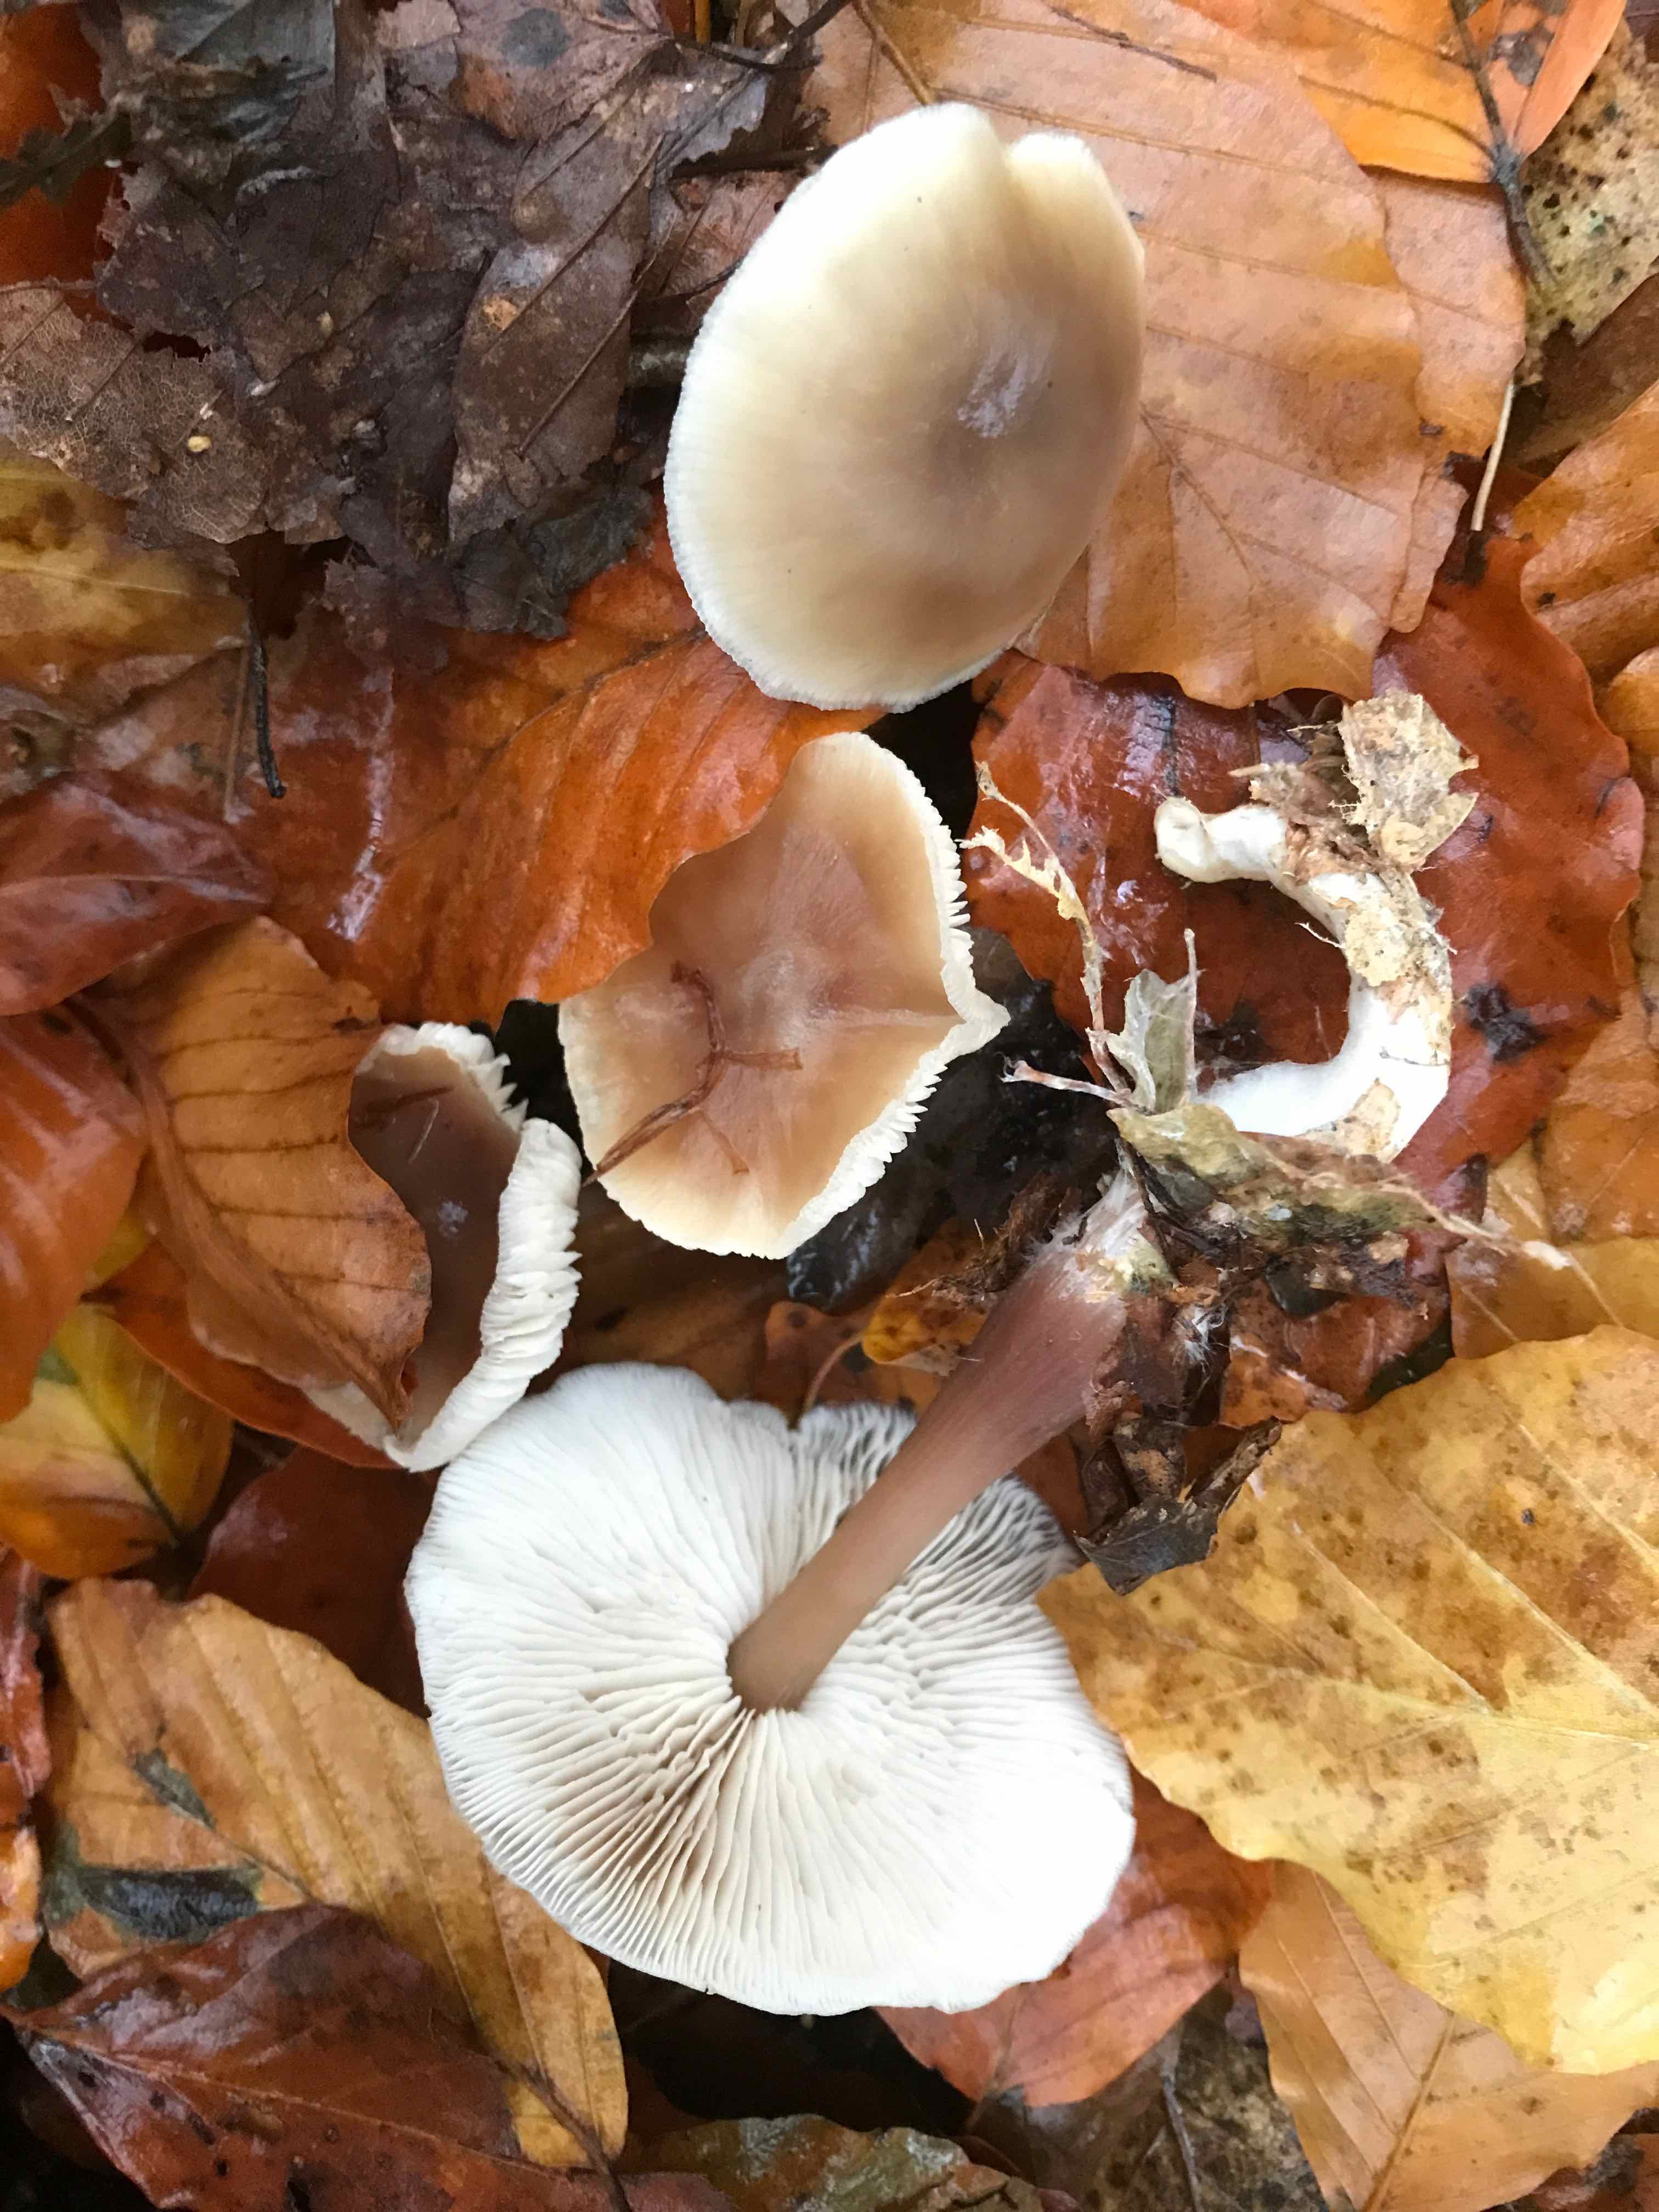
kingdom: Fungi
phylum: Basidiomycota
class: Agaricomycetes
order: Agaricales
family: Omphalotaceae
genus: Rhodocollybia
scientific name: Rhodocollybia asema
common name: horngrå fladhat
